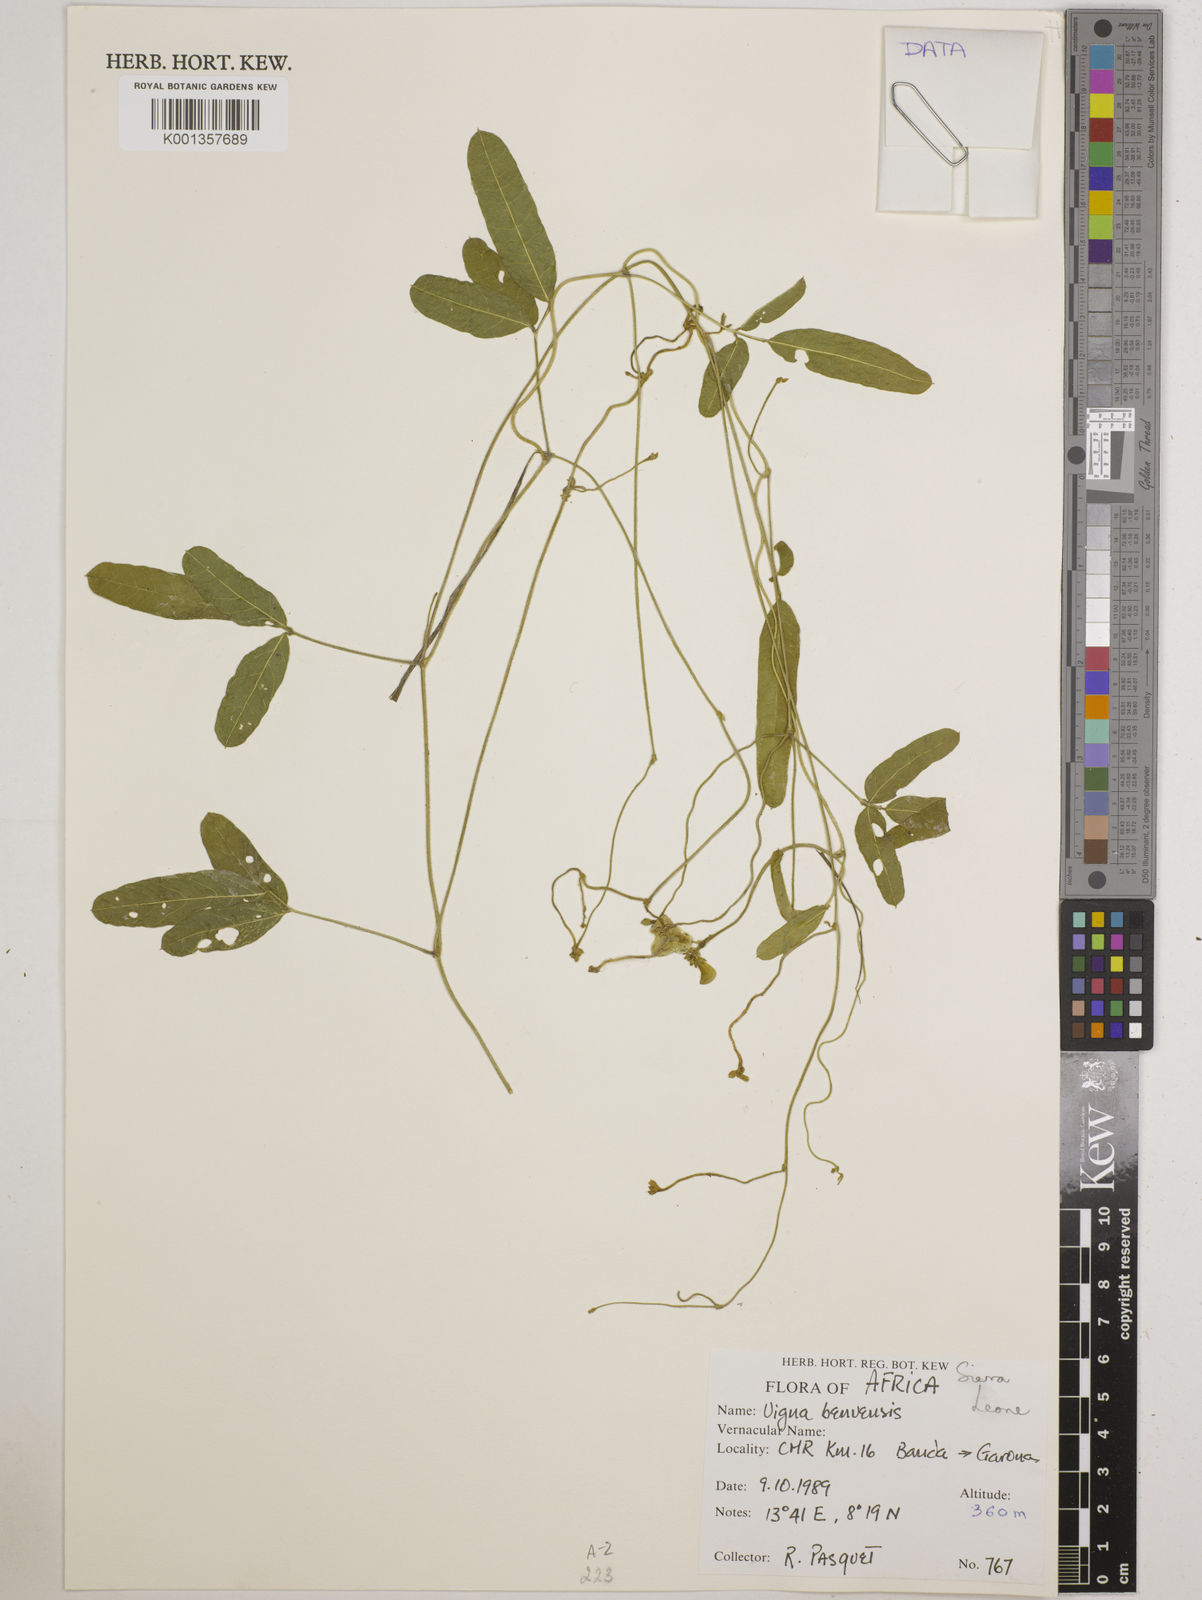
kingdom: Plantae
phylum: Tracheophyta
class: Magnoliopsida
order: Fabales
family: Fabaceae
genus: Vigna
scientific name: Vigna pubigera
